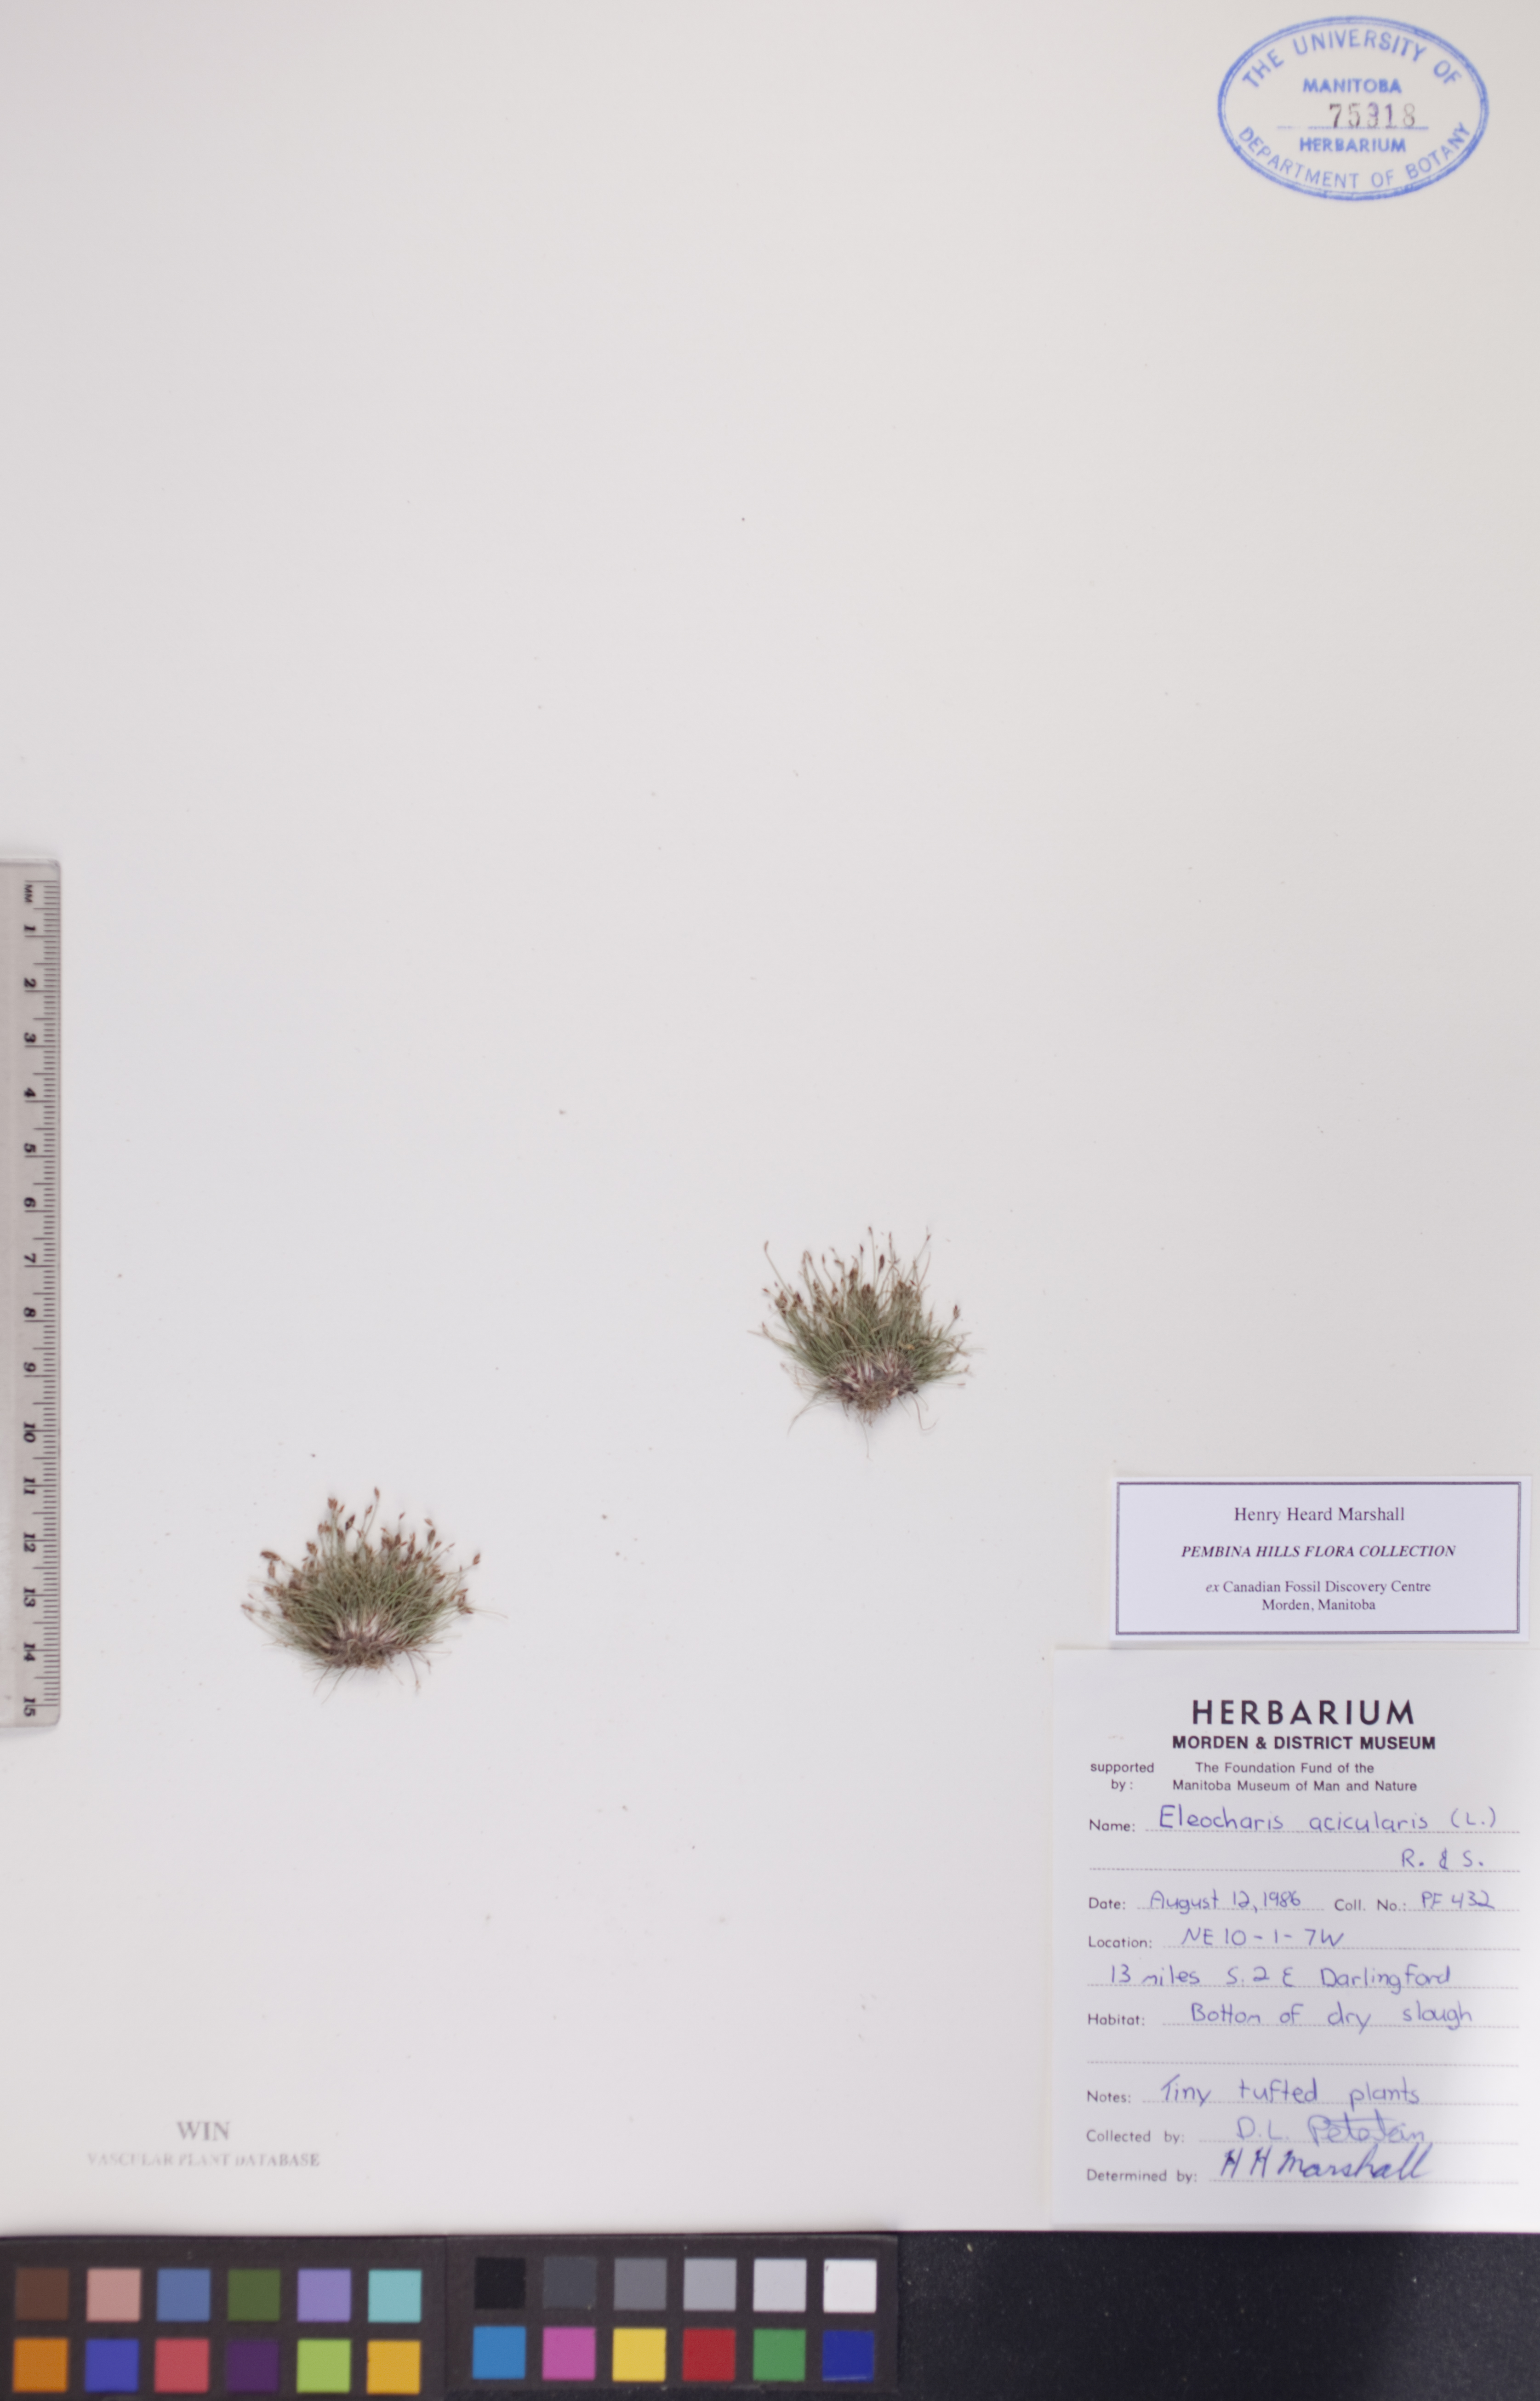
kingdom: Plantae
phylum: Tracheophyta
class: Liliopsida
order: Poales
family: Cyperaceae
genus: Eleocharis
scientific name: Eleocharis acicularis
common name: Needle spike-rush
